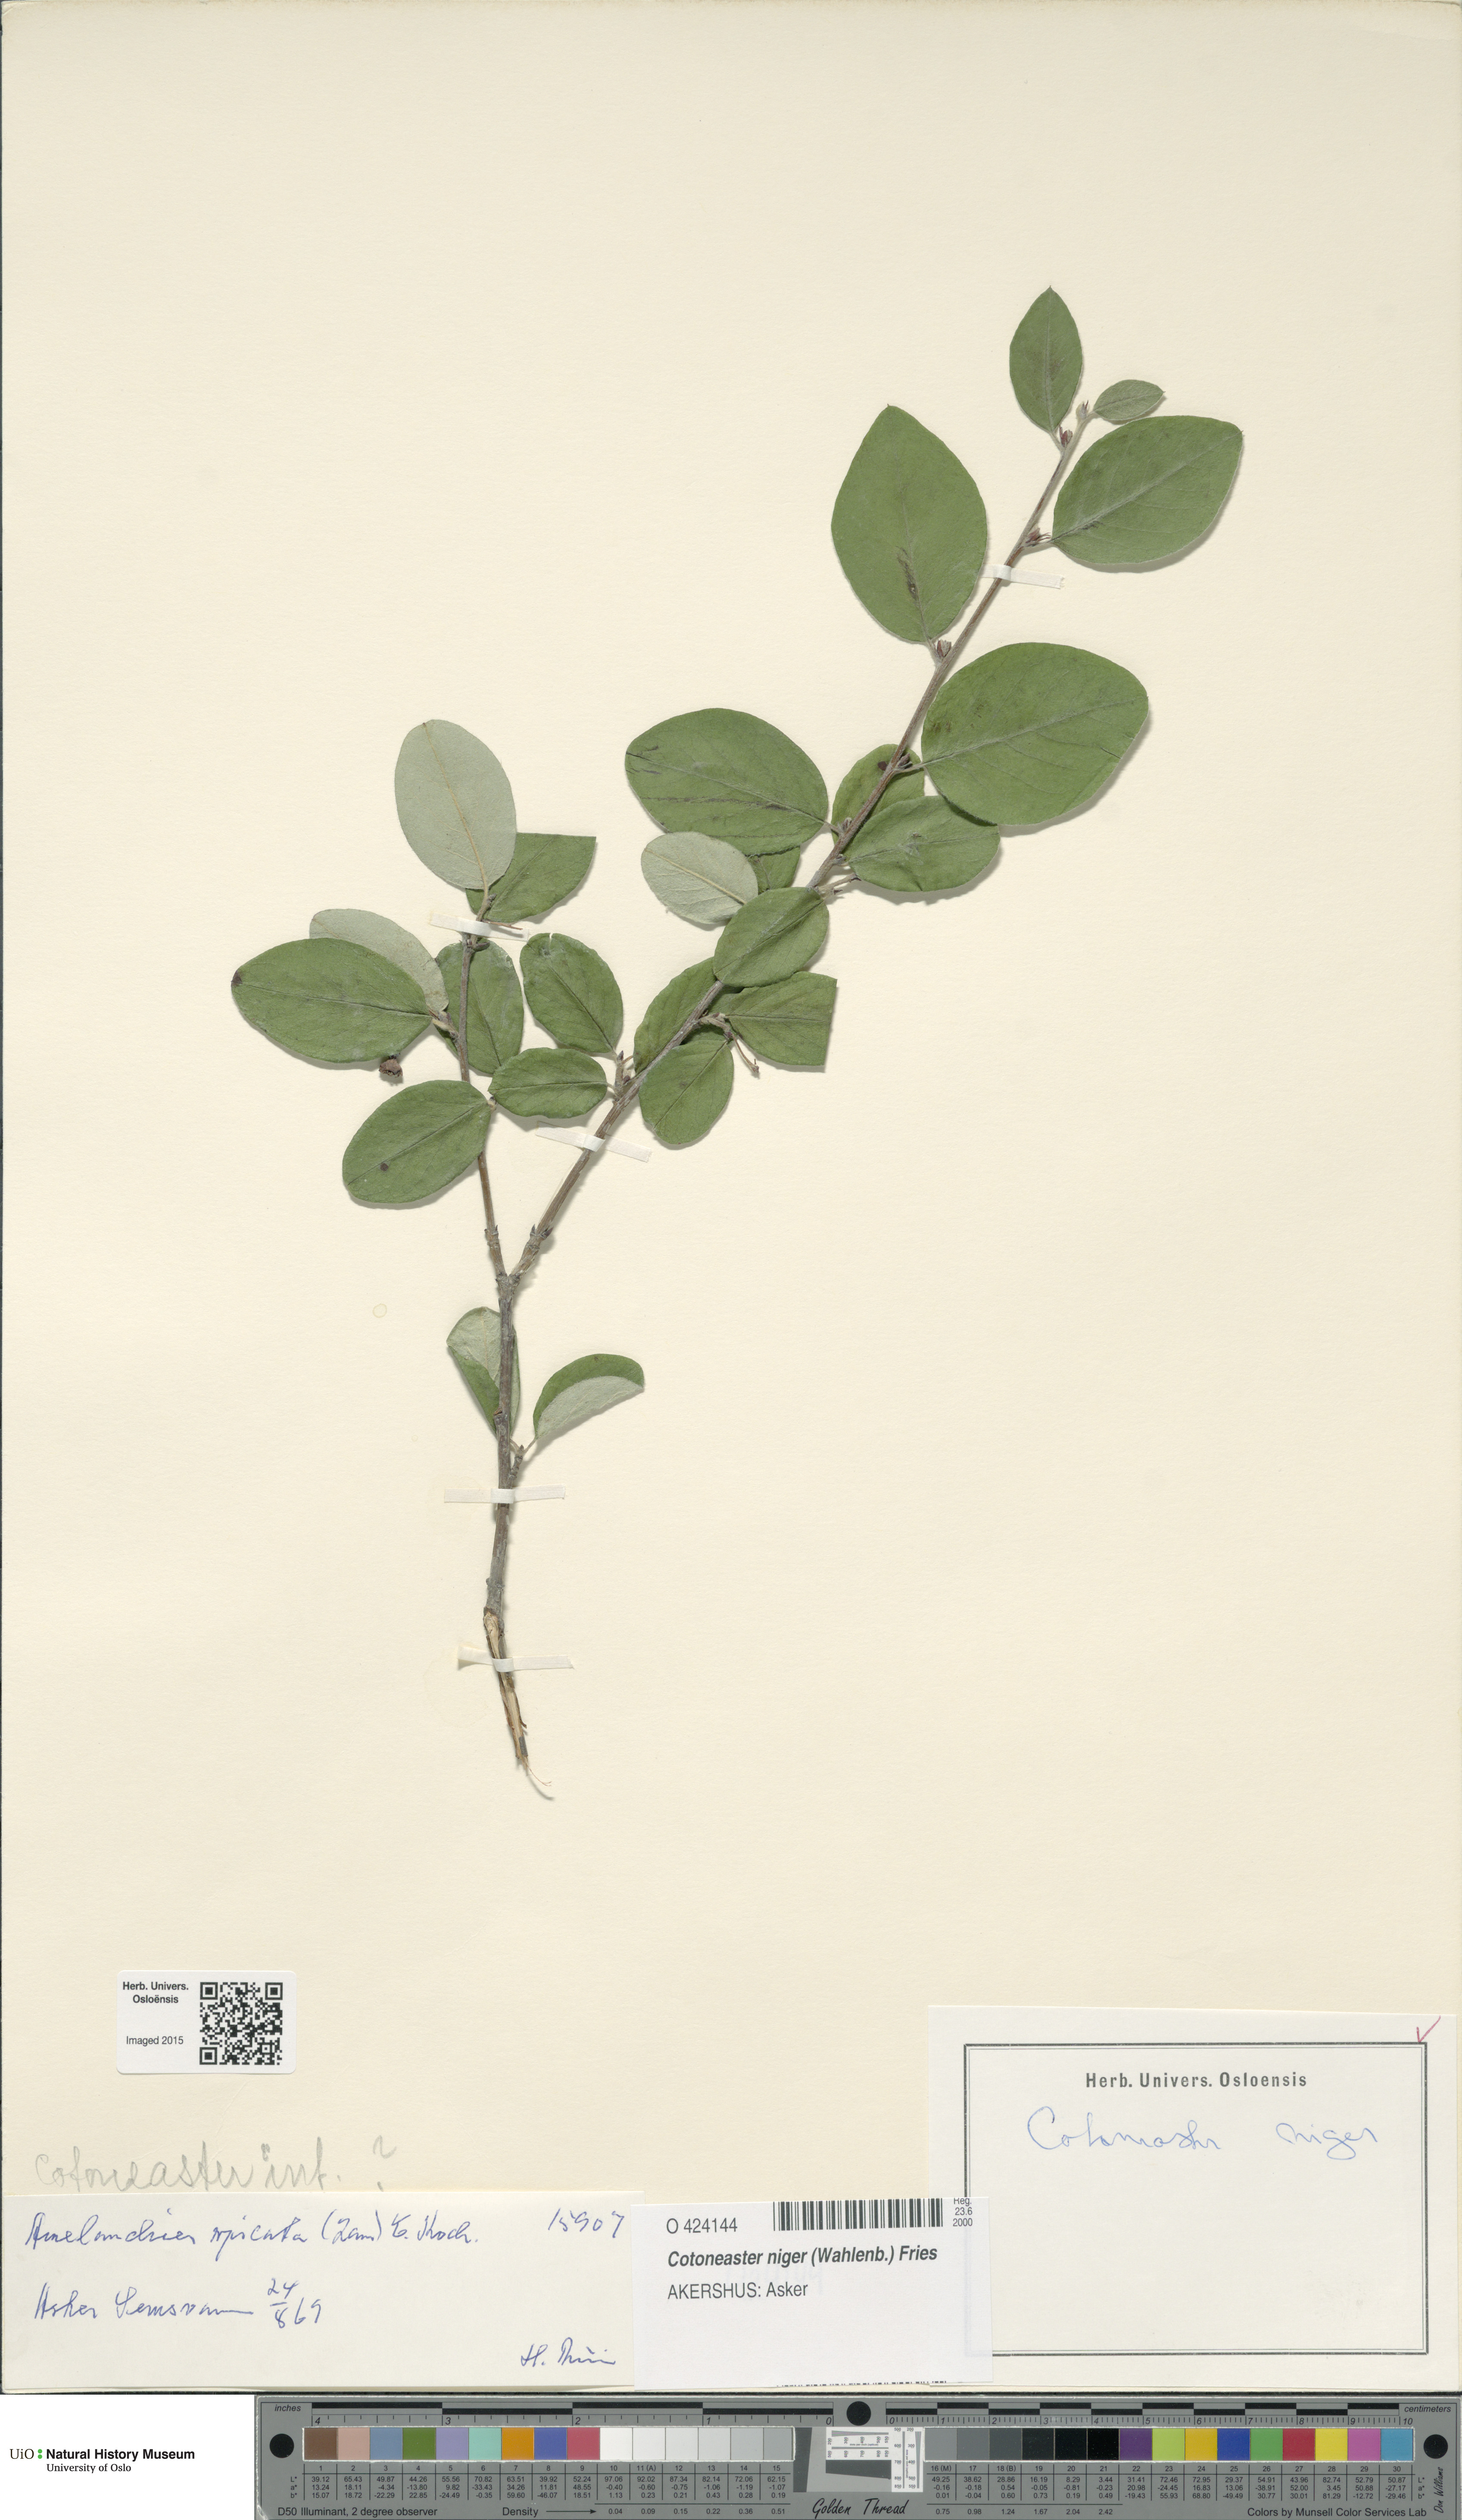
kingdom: Plantae
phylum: Tracheophyta
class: Magnoliopsida
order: Rosales
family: Rosaceae
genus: Cotoneaster
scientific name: Cotoneaster niger
